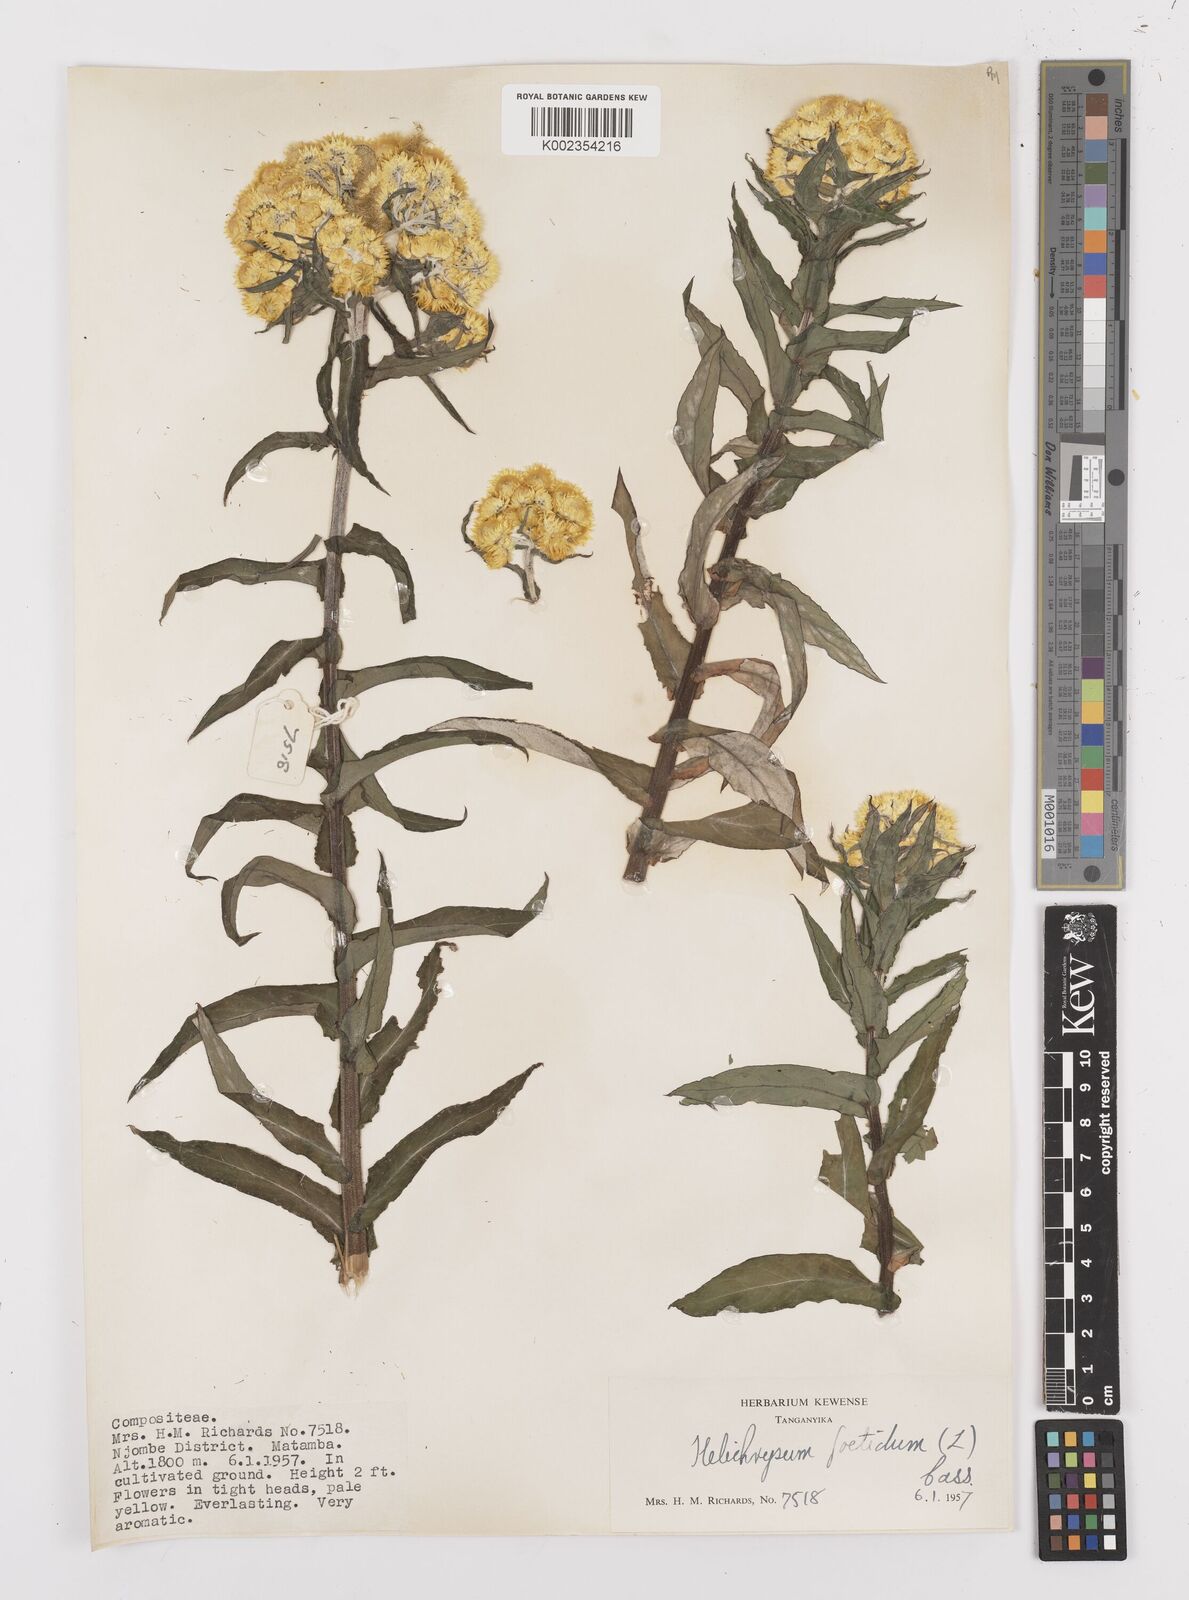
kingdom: Plantae
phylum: Tracheophyta
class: Magnoliopsida
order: Asterales
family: Asteraceae
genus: Helichrysum
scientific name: Helichrysum
